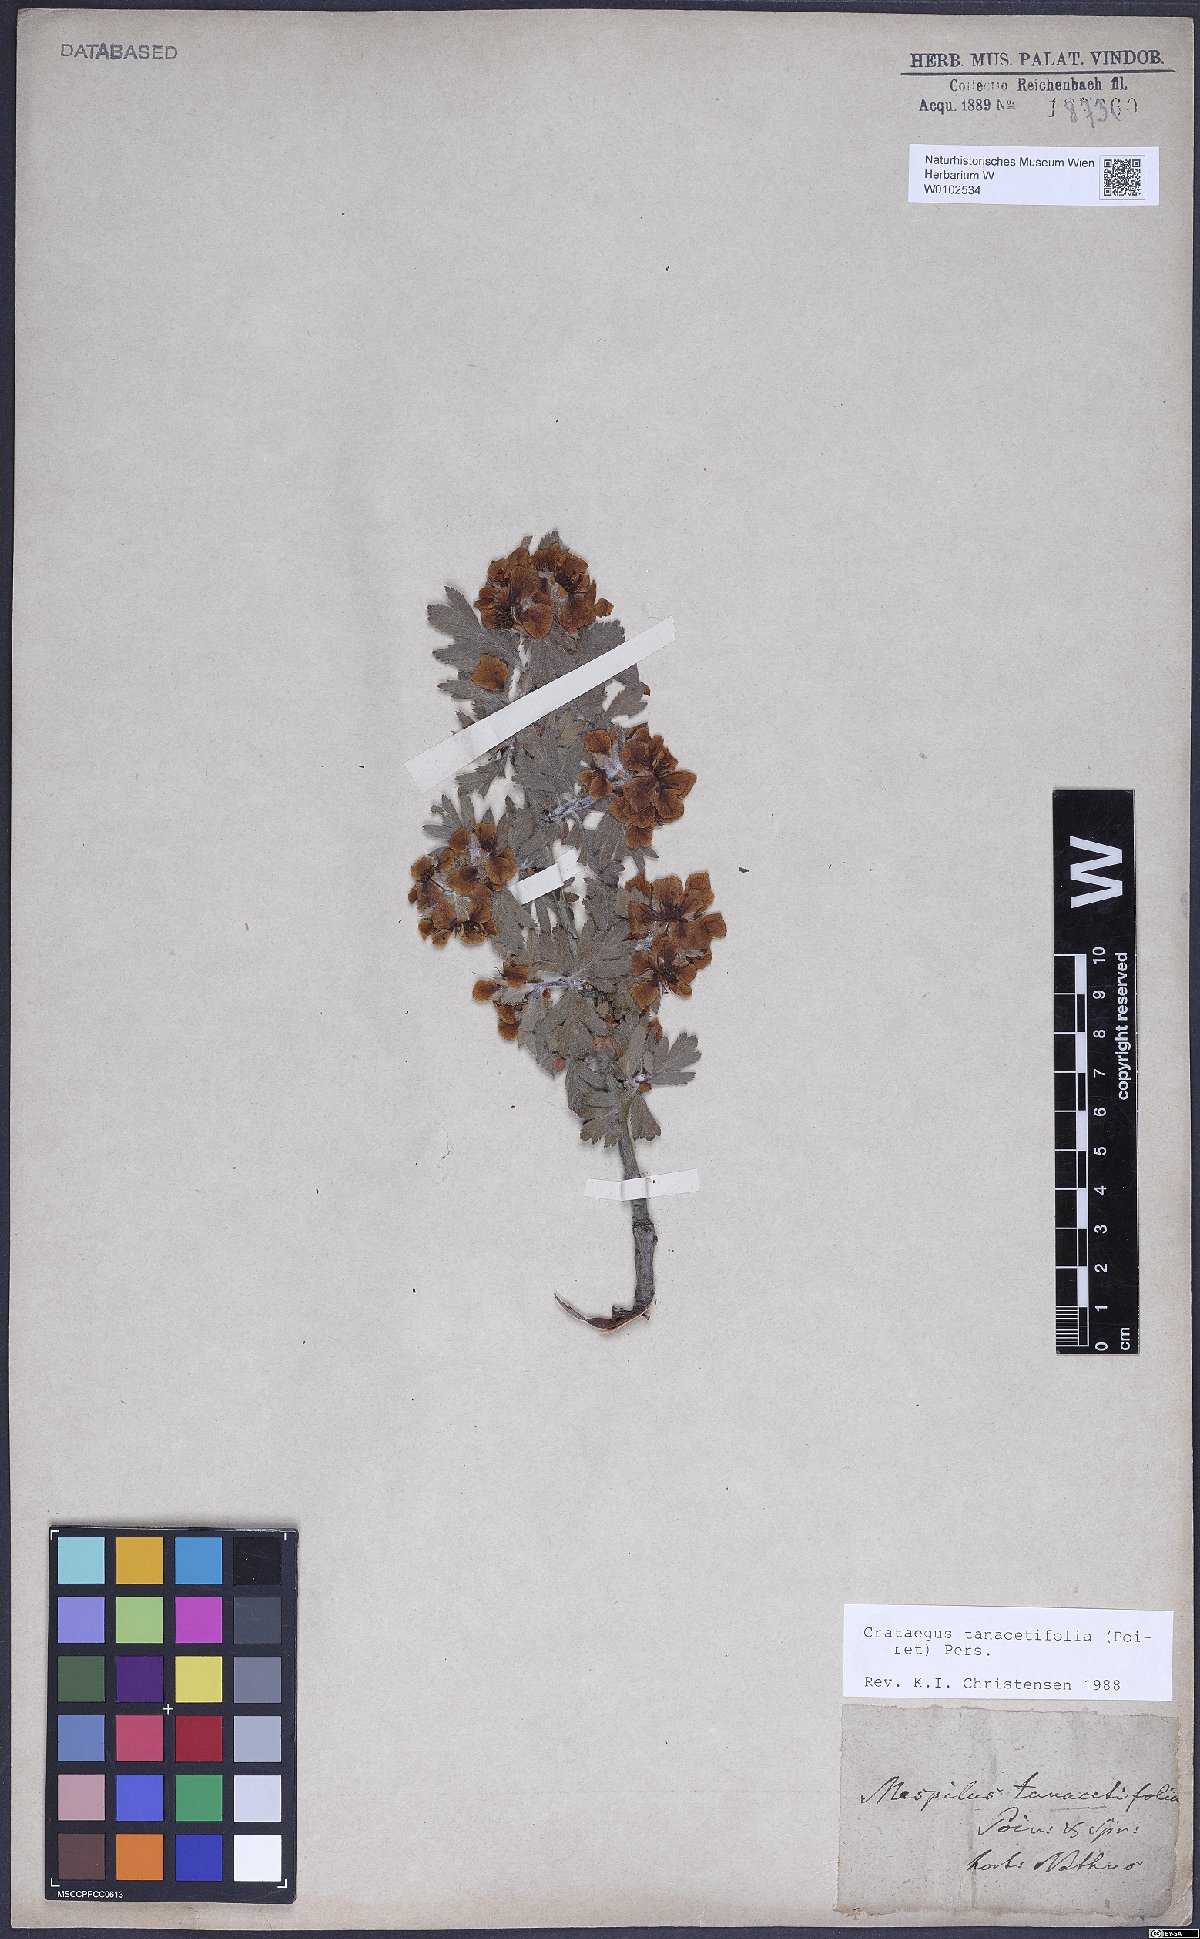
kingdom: Plantae
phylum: Tracheophyta
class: Magnoliopsida
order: Rosales
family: Rosaceae
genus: Crataegus
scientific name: Crataegus tanacetifolia
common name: Tansy-leaved thorn
